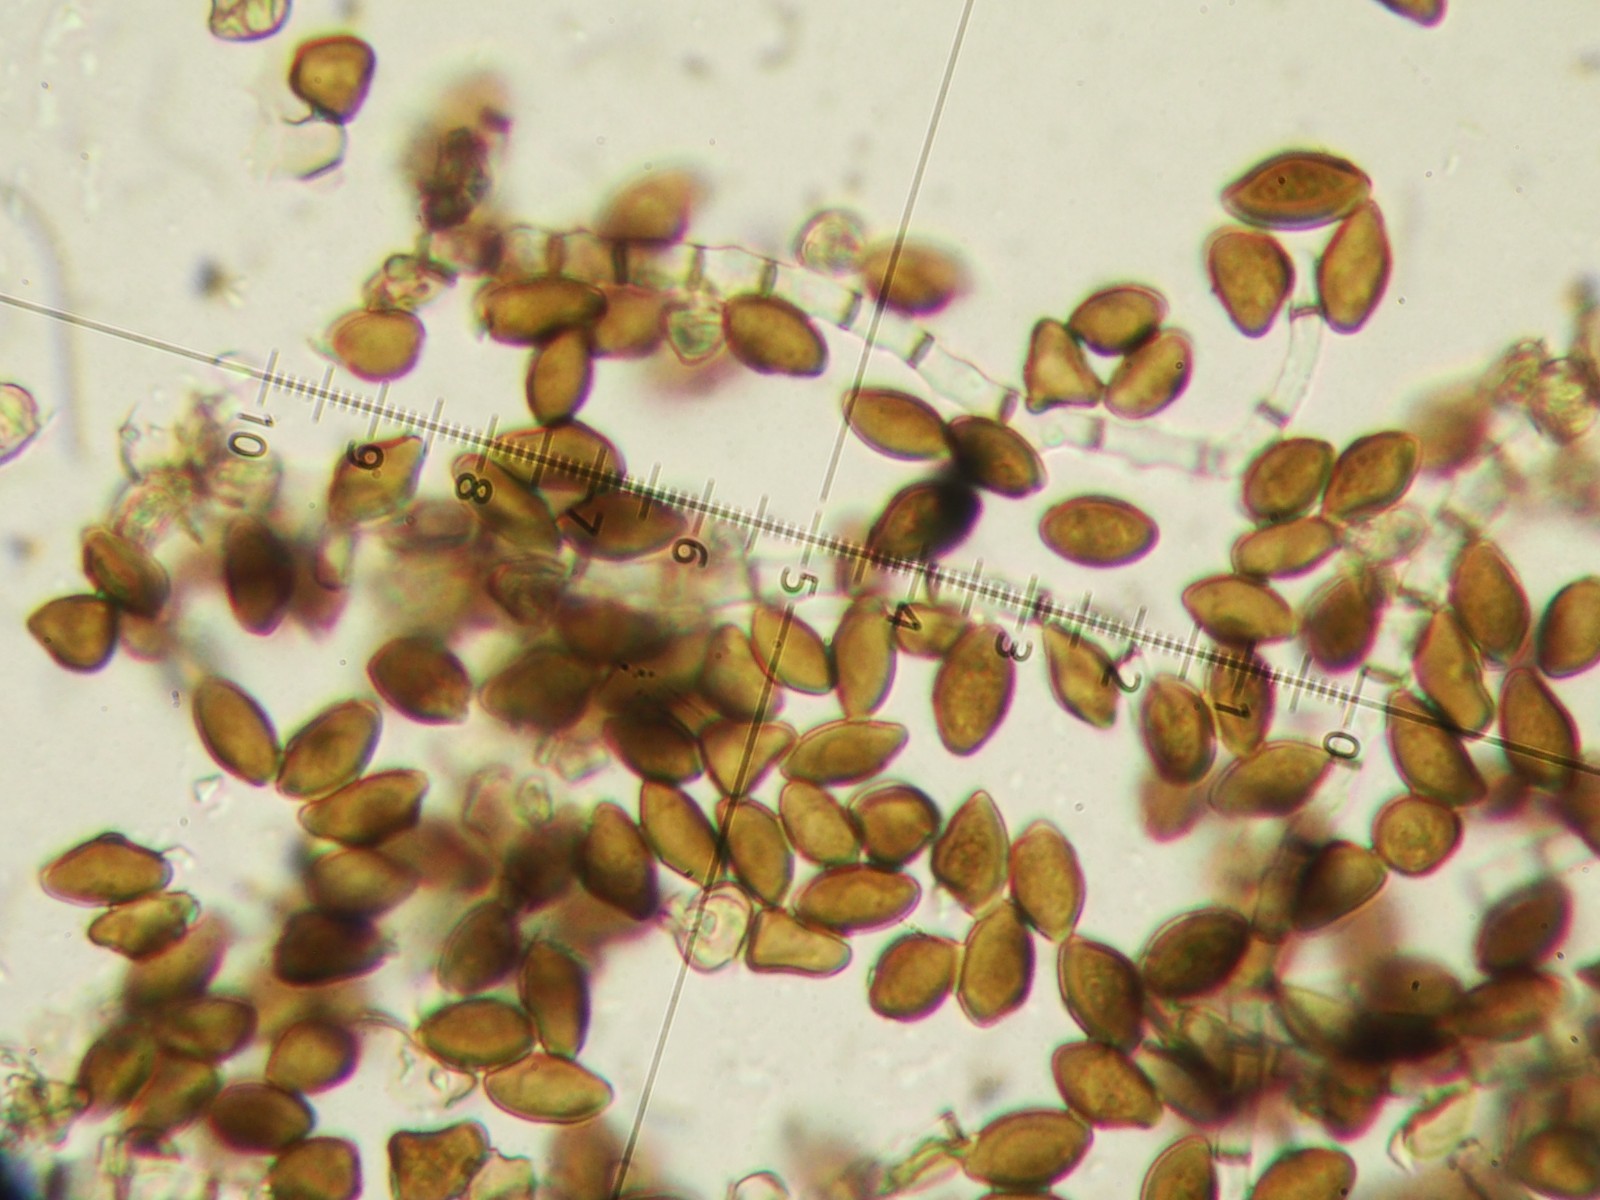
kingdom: Fungi
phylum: Ascomycota
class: Sordariomycetes
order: Xylariales
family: Apiosporaceae
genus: Arthrinium
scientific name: Arthrinium sporophleum
